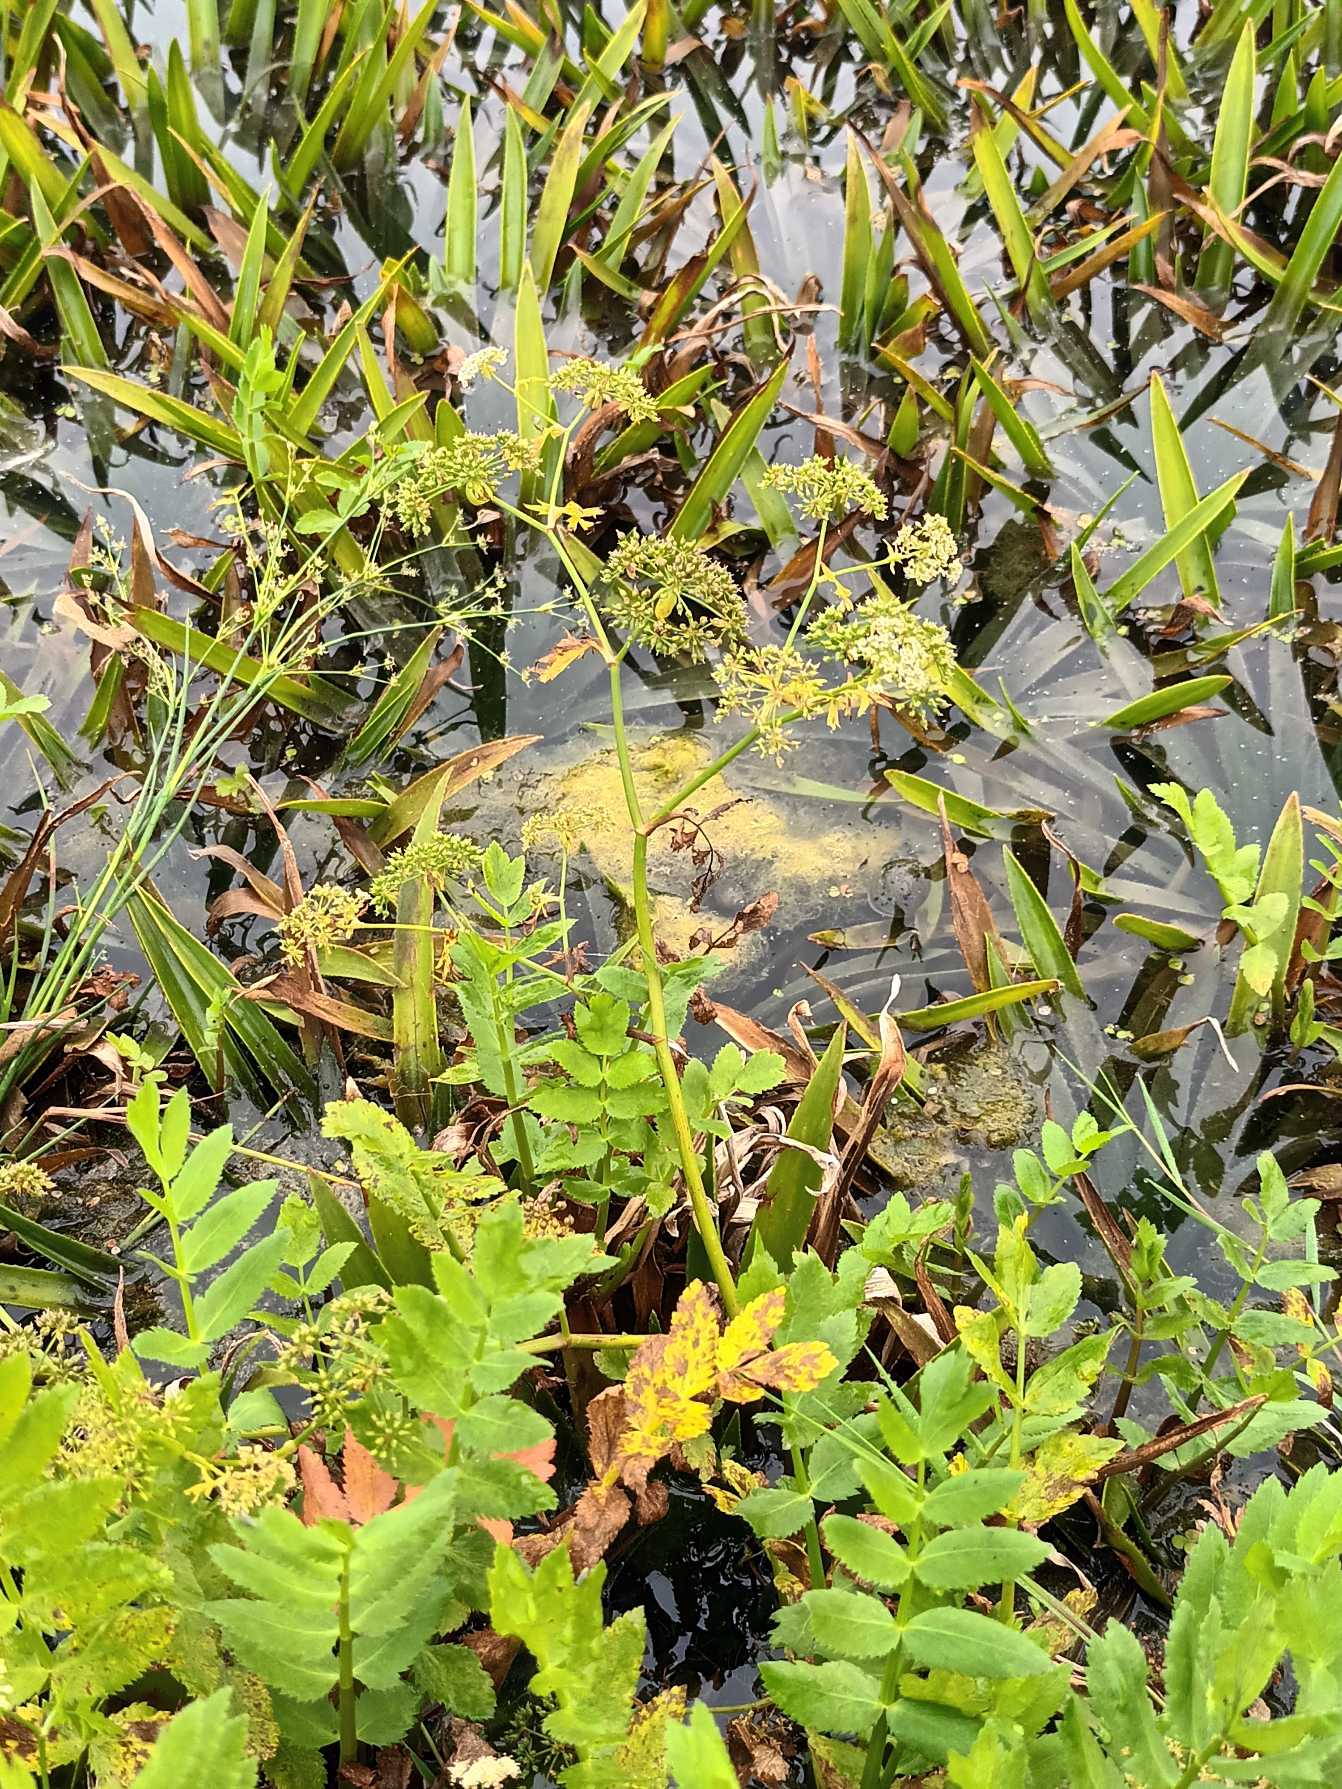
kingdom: Plantae
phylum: Tracheophyta
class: Magnoliopsida
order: Apiales
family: Apiaceae
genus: Berula
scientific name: Berula erecta
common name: Sideskærm
